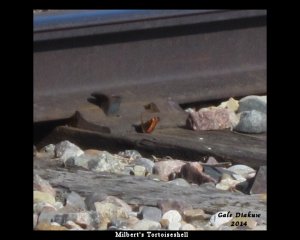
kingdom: Animalia
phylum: Arthropoda
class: Insecta
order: Lepidoptera
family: Nymphalidae
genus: Aglais
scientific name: Aglais milberti
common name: Milbert's Tortoiseshell
